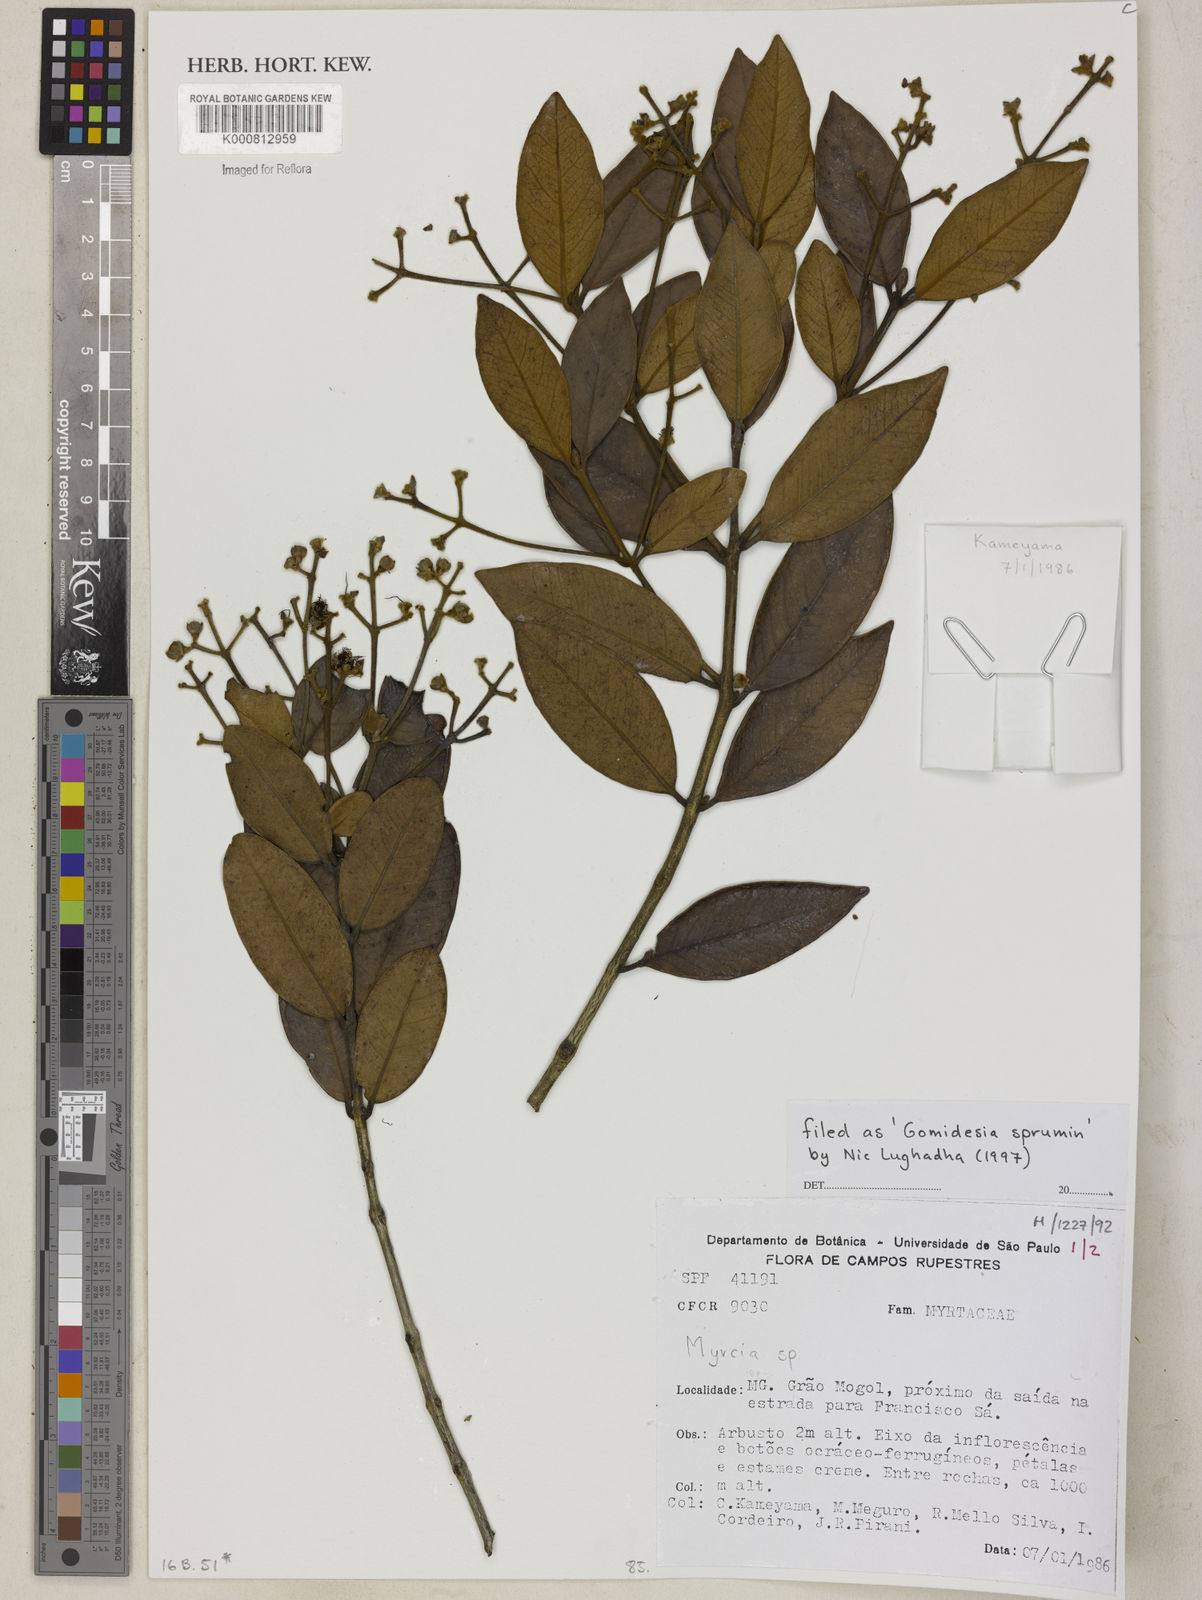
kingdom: Plantae
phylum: Tracheophyta
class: Magnoliopsida
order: Myrtales
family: Myrtaceae
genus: Myrcia
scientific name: Myrcia
